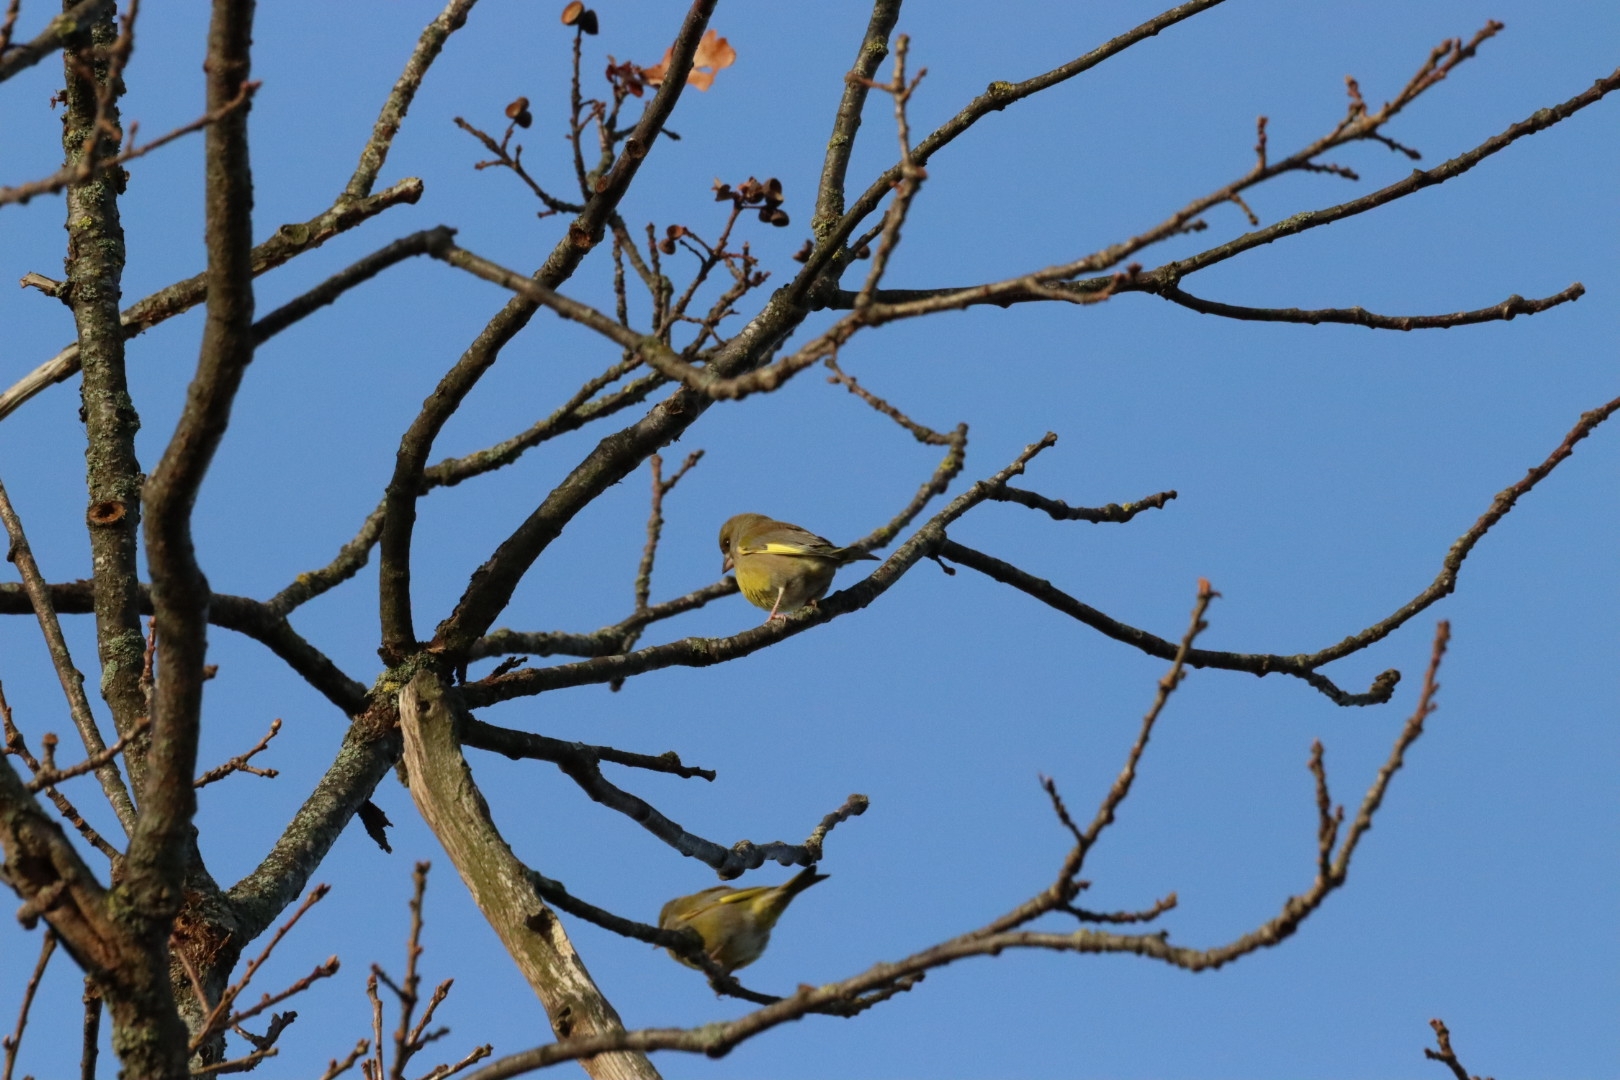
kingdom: Plantae
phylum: Tracheophyta
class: Liliopsida
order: Poales
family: Poaceae
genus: Chloris
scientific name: Chloris chloris
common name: Grønirisk
